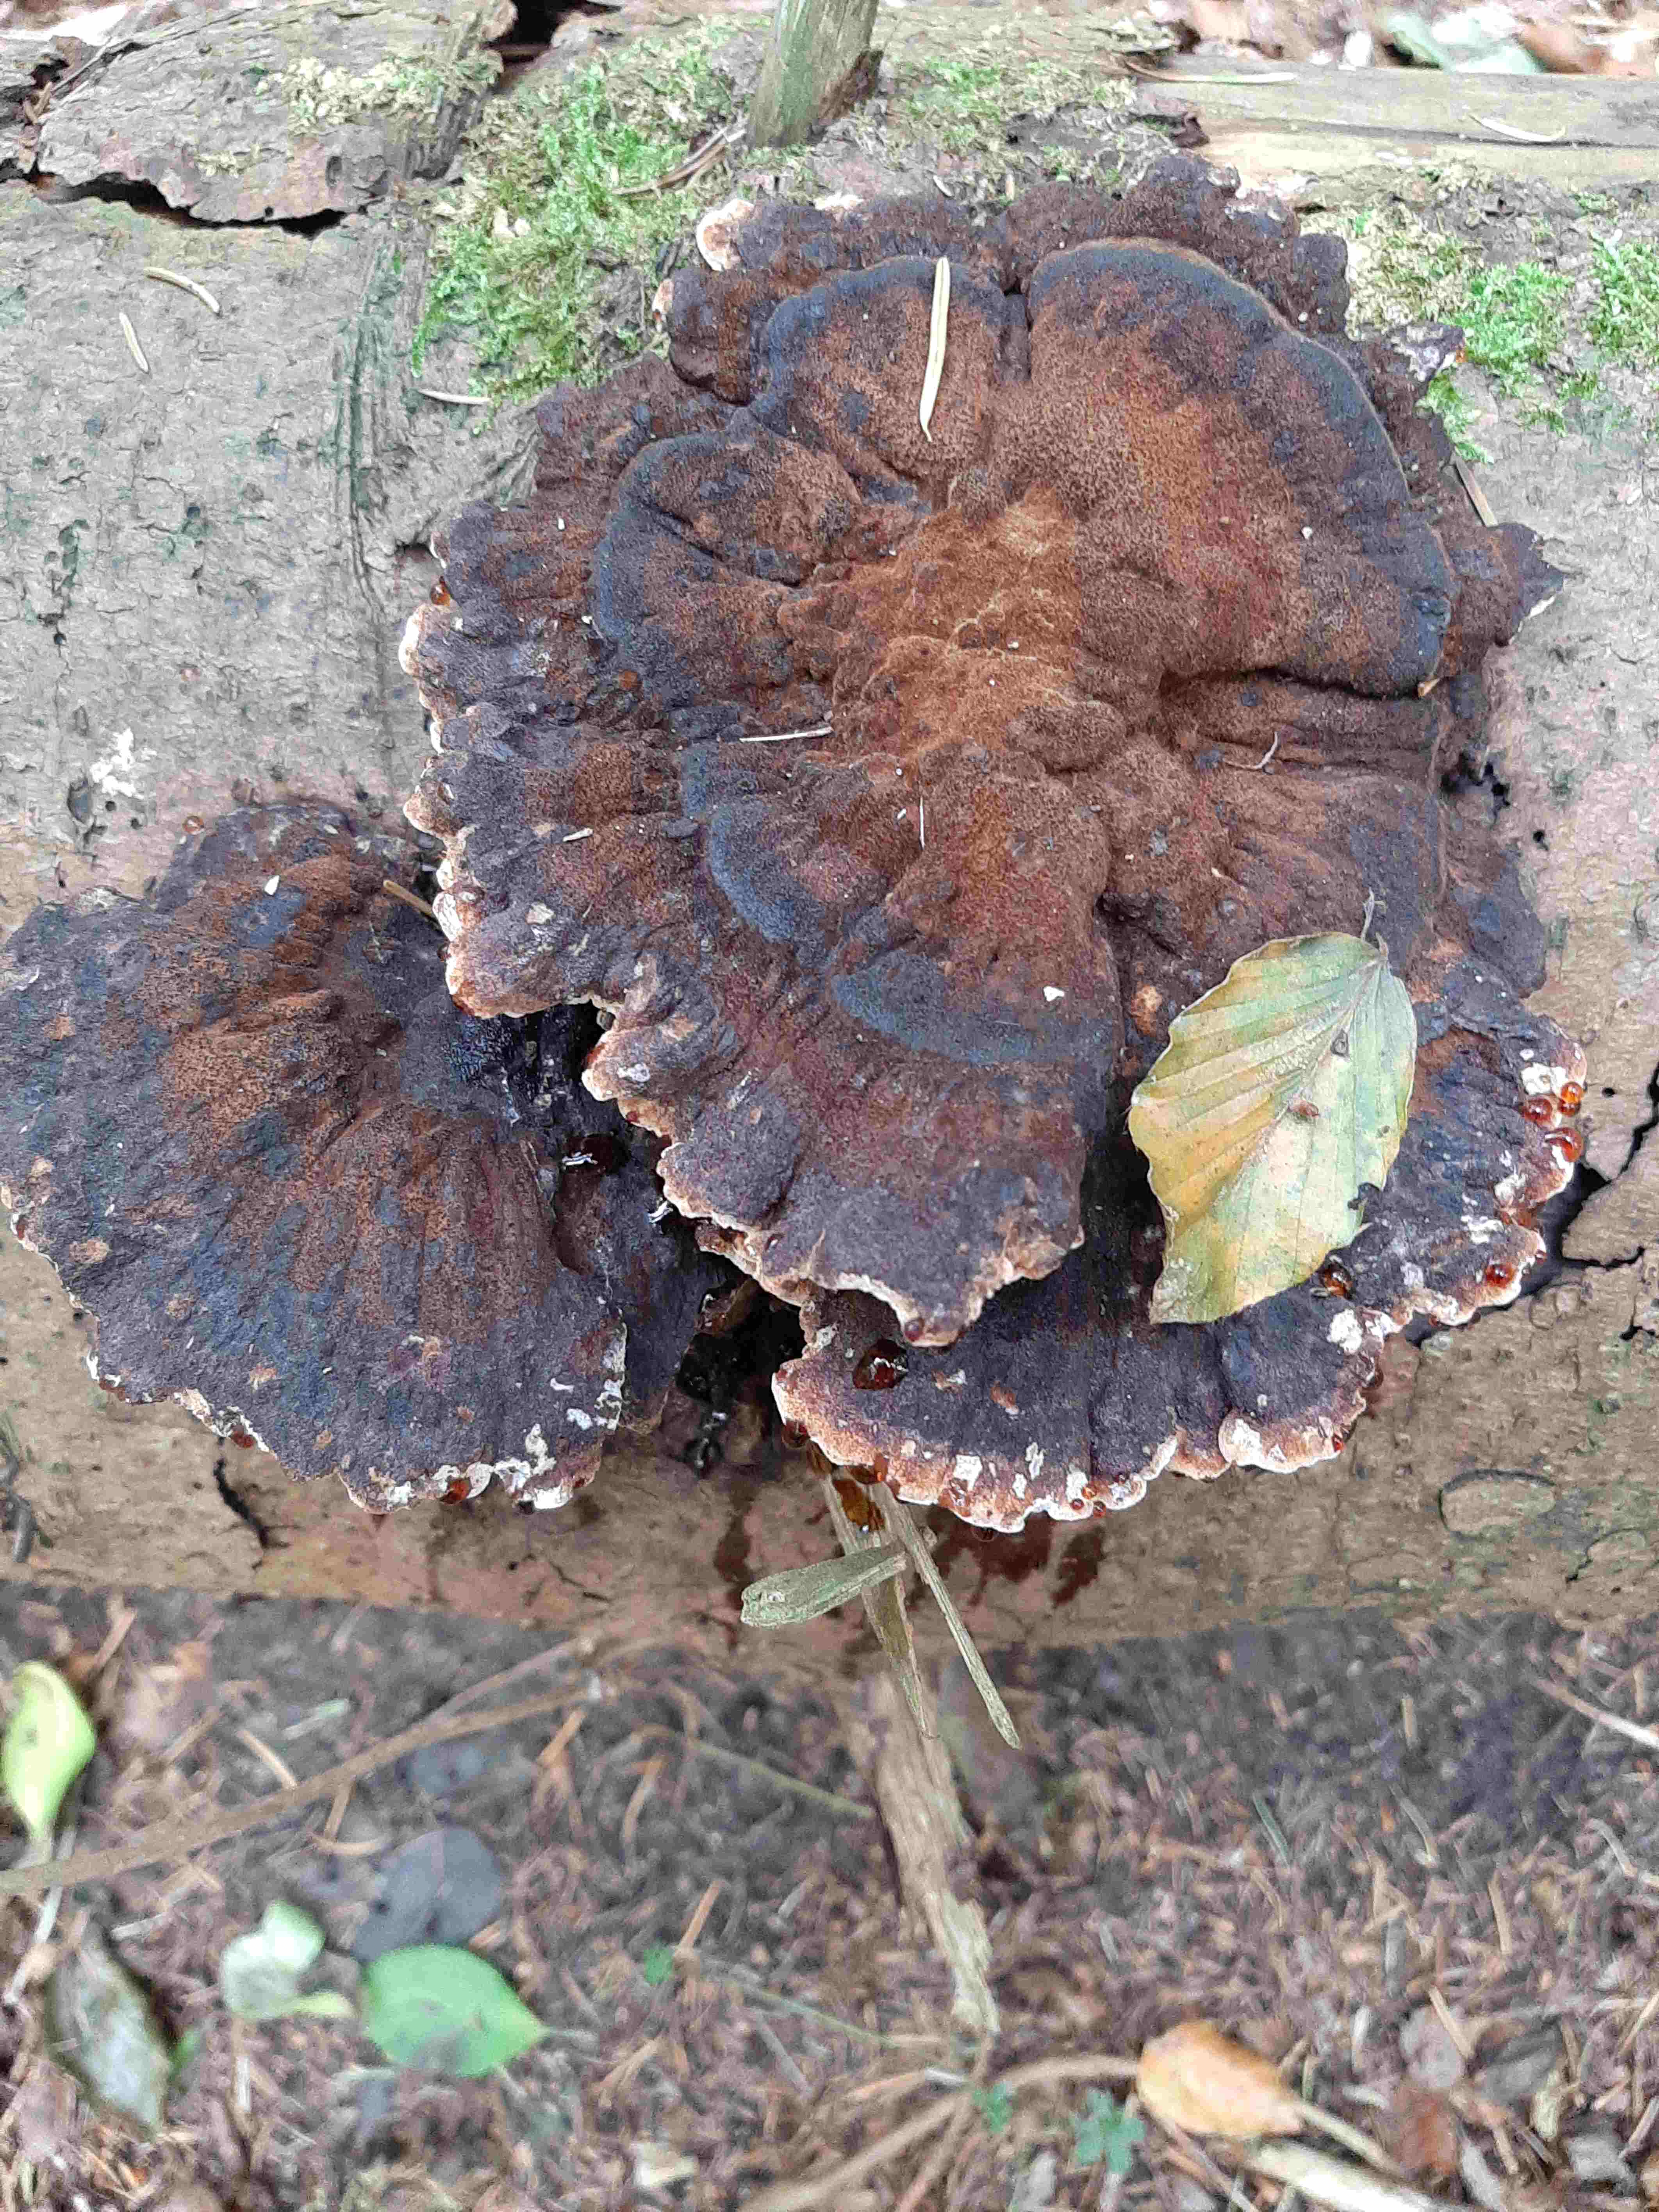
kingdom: Fungi
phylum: Basidiomycota
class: Agaricomycetes
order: Polyporales
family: Ischnodermataceae
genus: Ischnoderma
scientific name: Ischnoderma benzoinum
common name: gran-tjæreporesvamp
